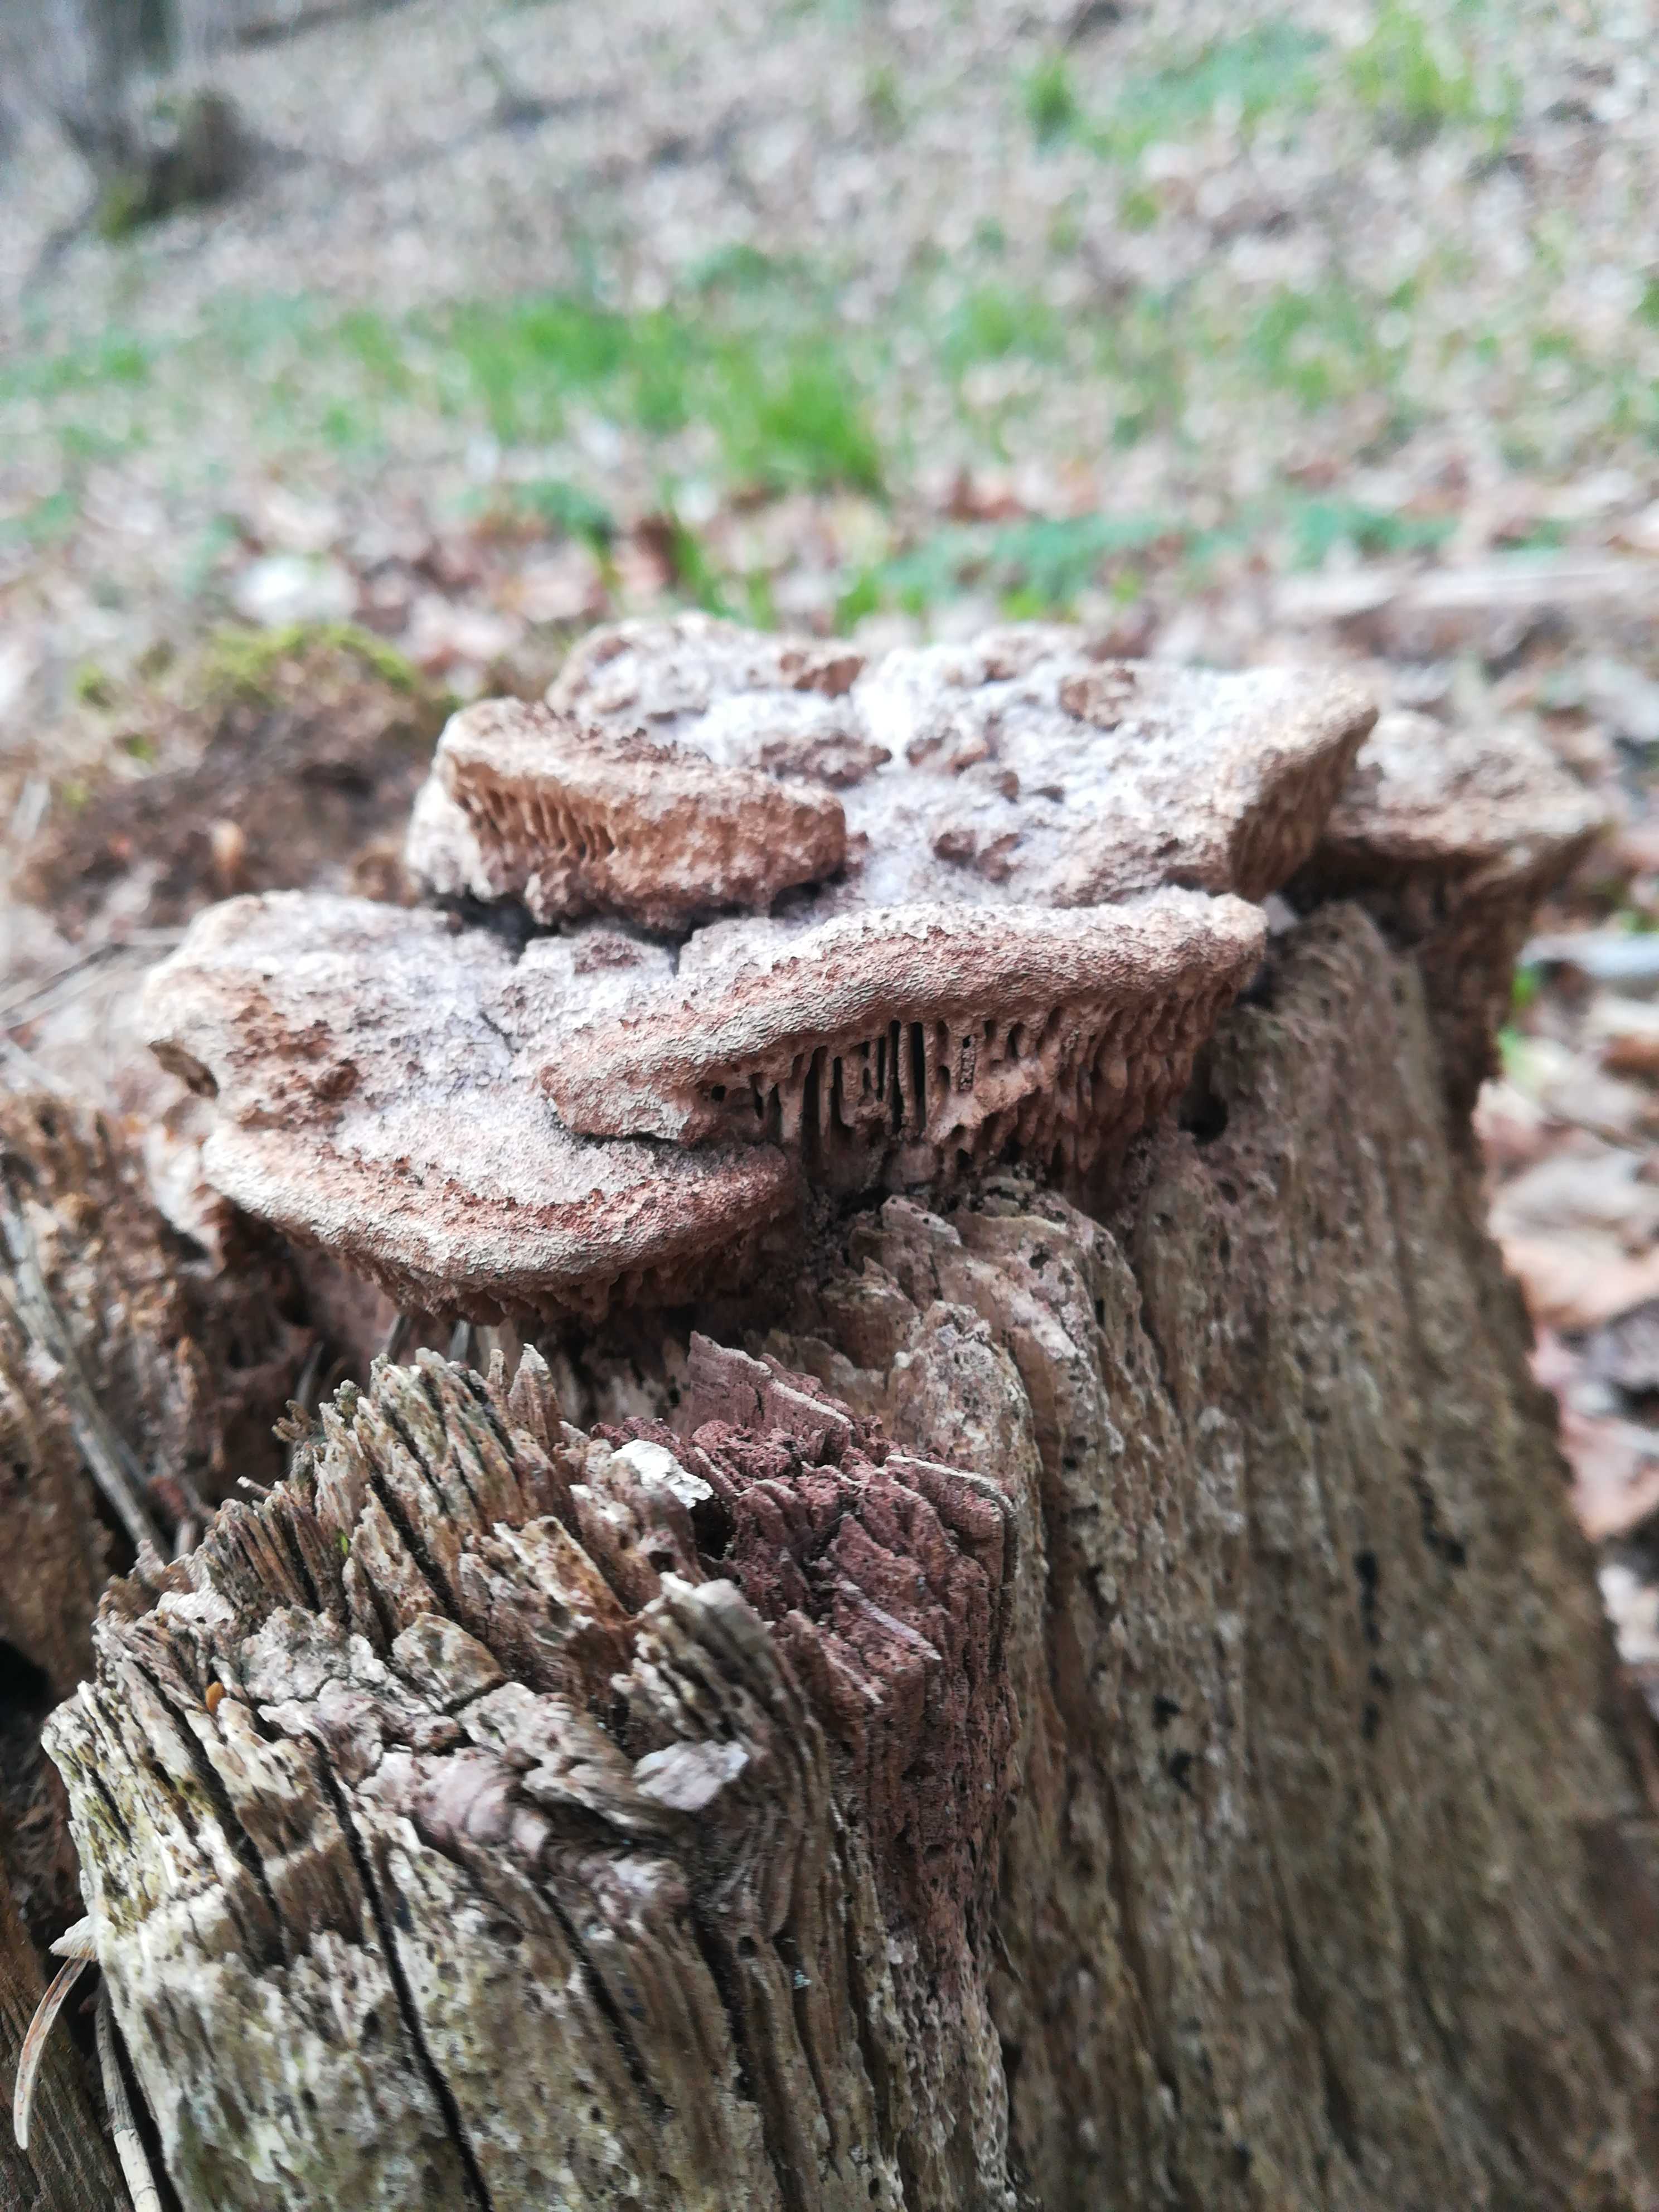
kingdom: Fungi
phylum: Basidiomycota
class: Agaricomycetes
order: Polyporales
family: Fomitopsidaceae
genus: Daedalea
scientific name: Daedalea quercina
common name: ege-labyrintsvamp
